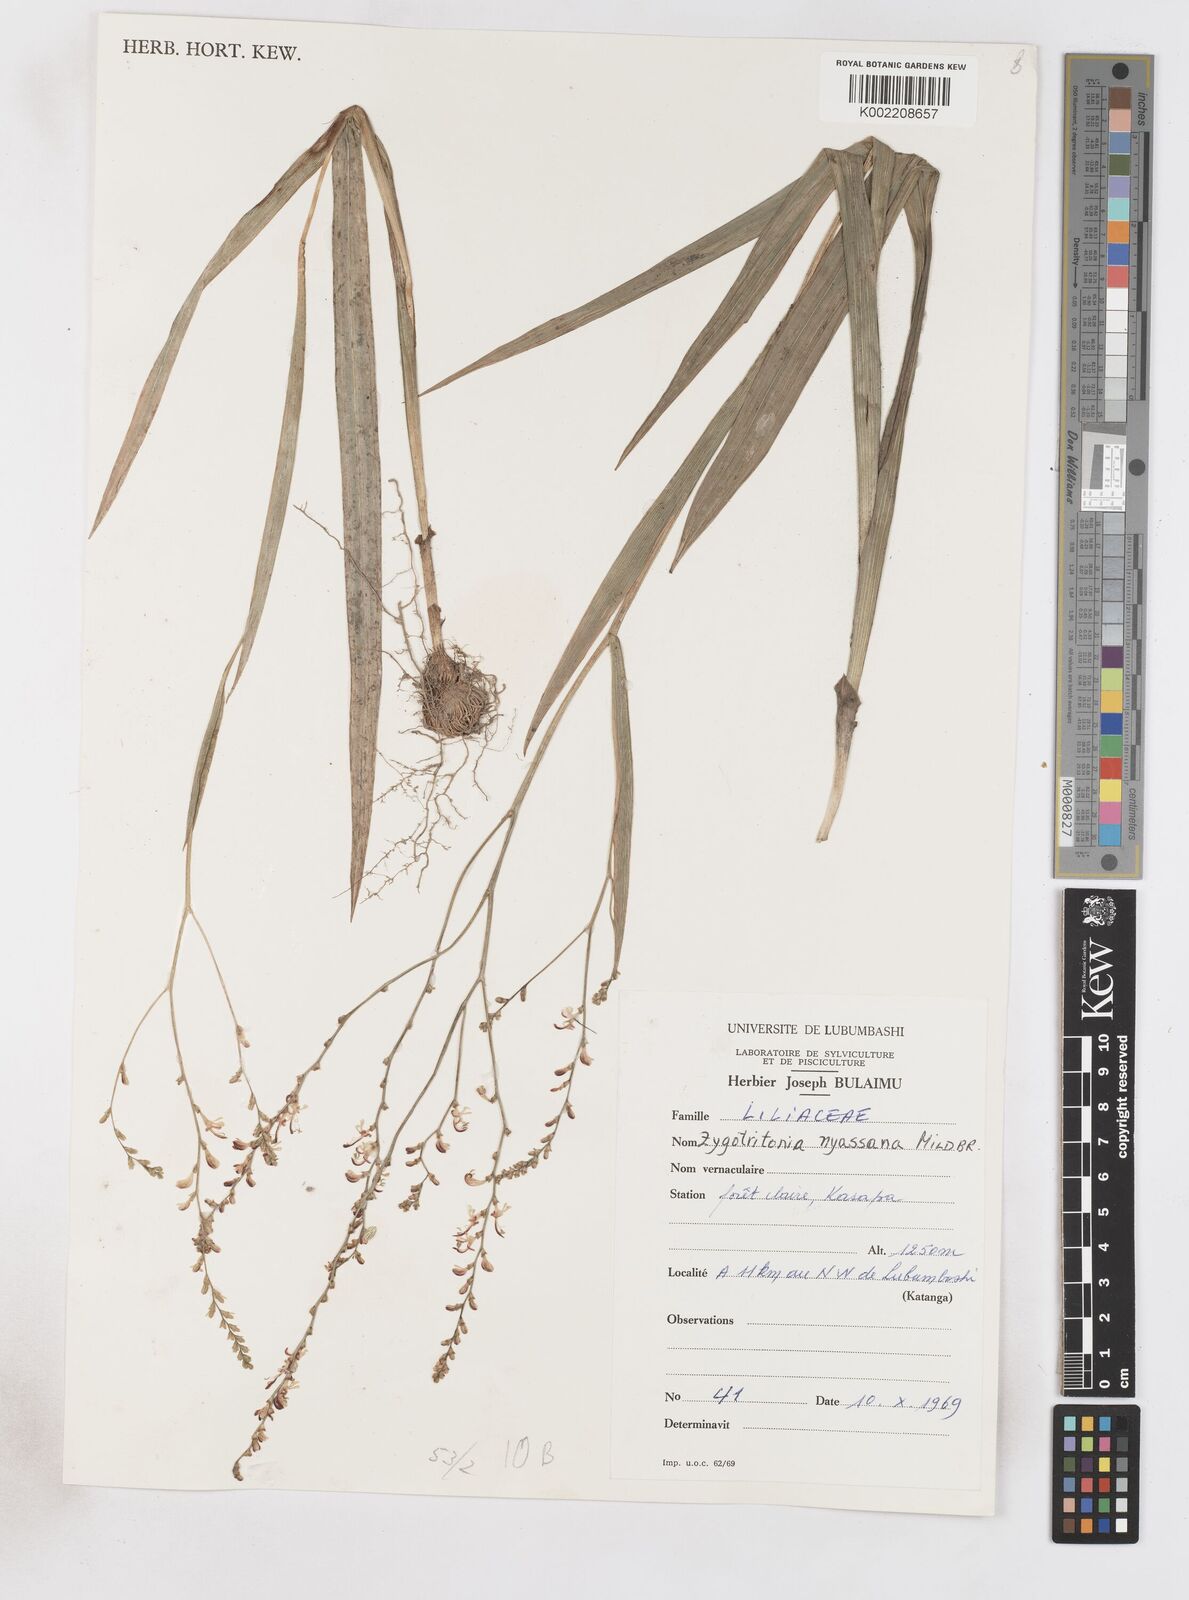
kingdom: Plantae
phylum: Tracheophyta
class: Liliopsida
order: Asparagales
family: Iridaceae
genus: Zygotritonia
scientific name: Zygotritonia nyassana
